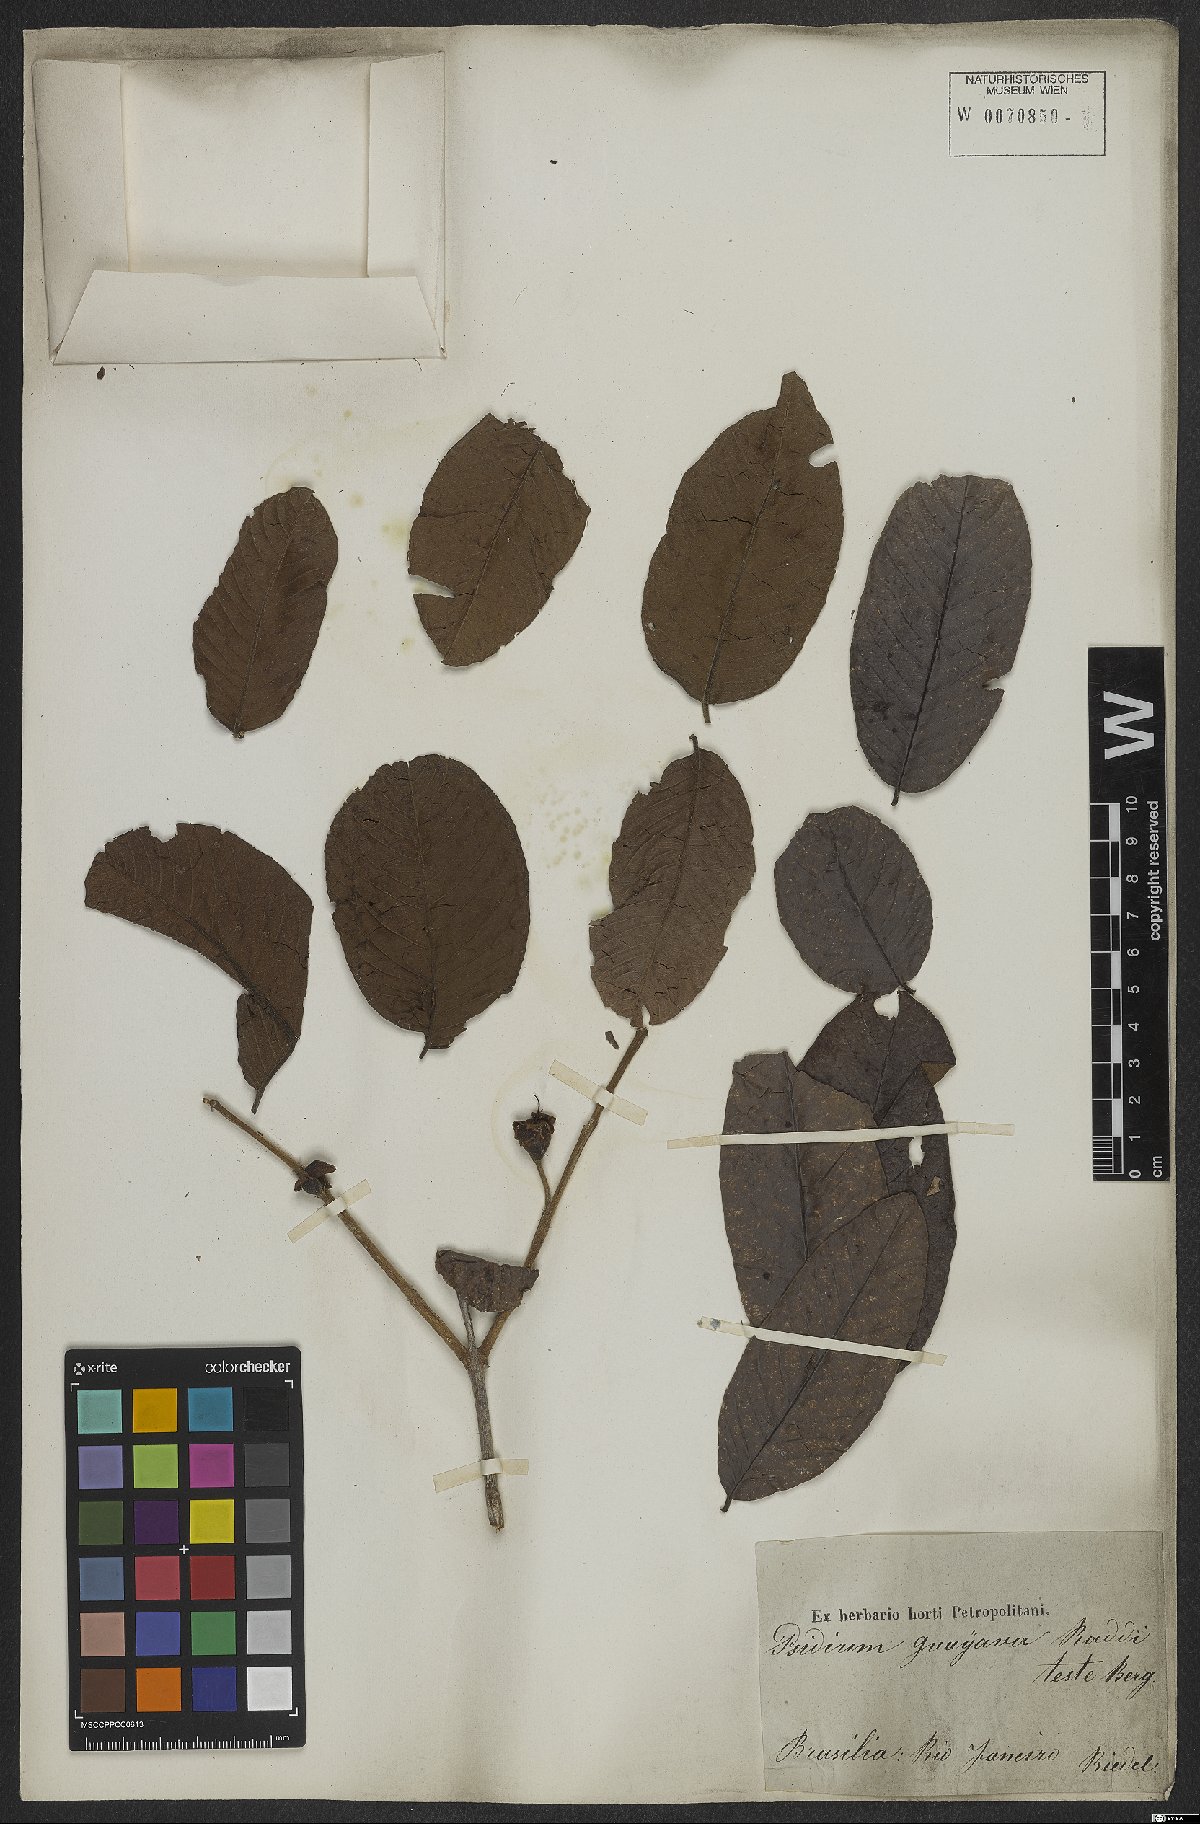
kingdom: Plantae
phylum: Tracheophyta
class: Magnoliopsida
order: Myrtales
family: Myrtaceae
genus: Psidium
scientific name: Psidium guajava
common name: Guava
